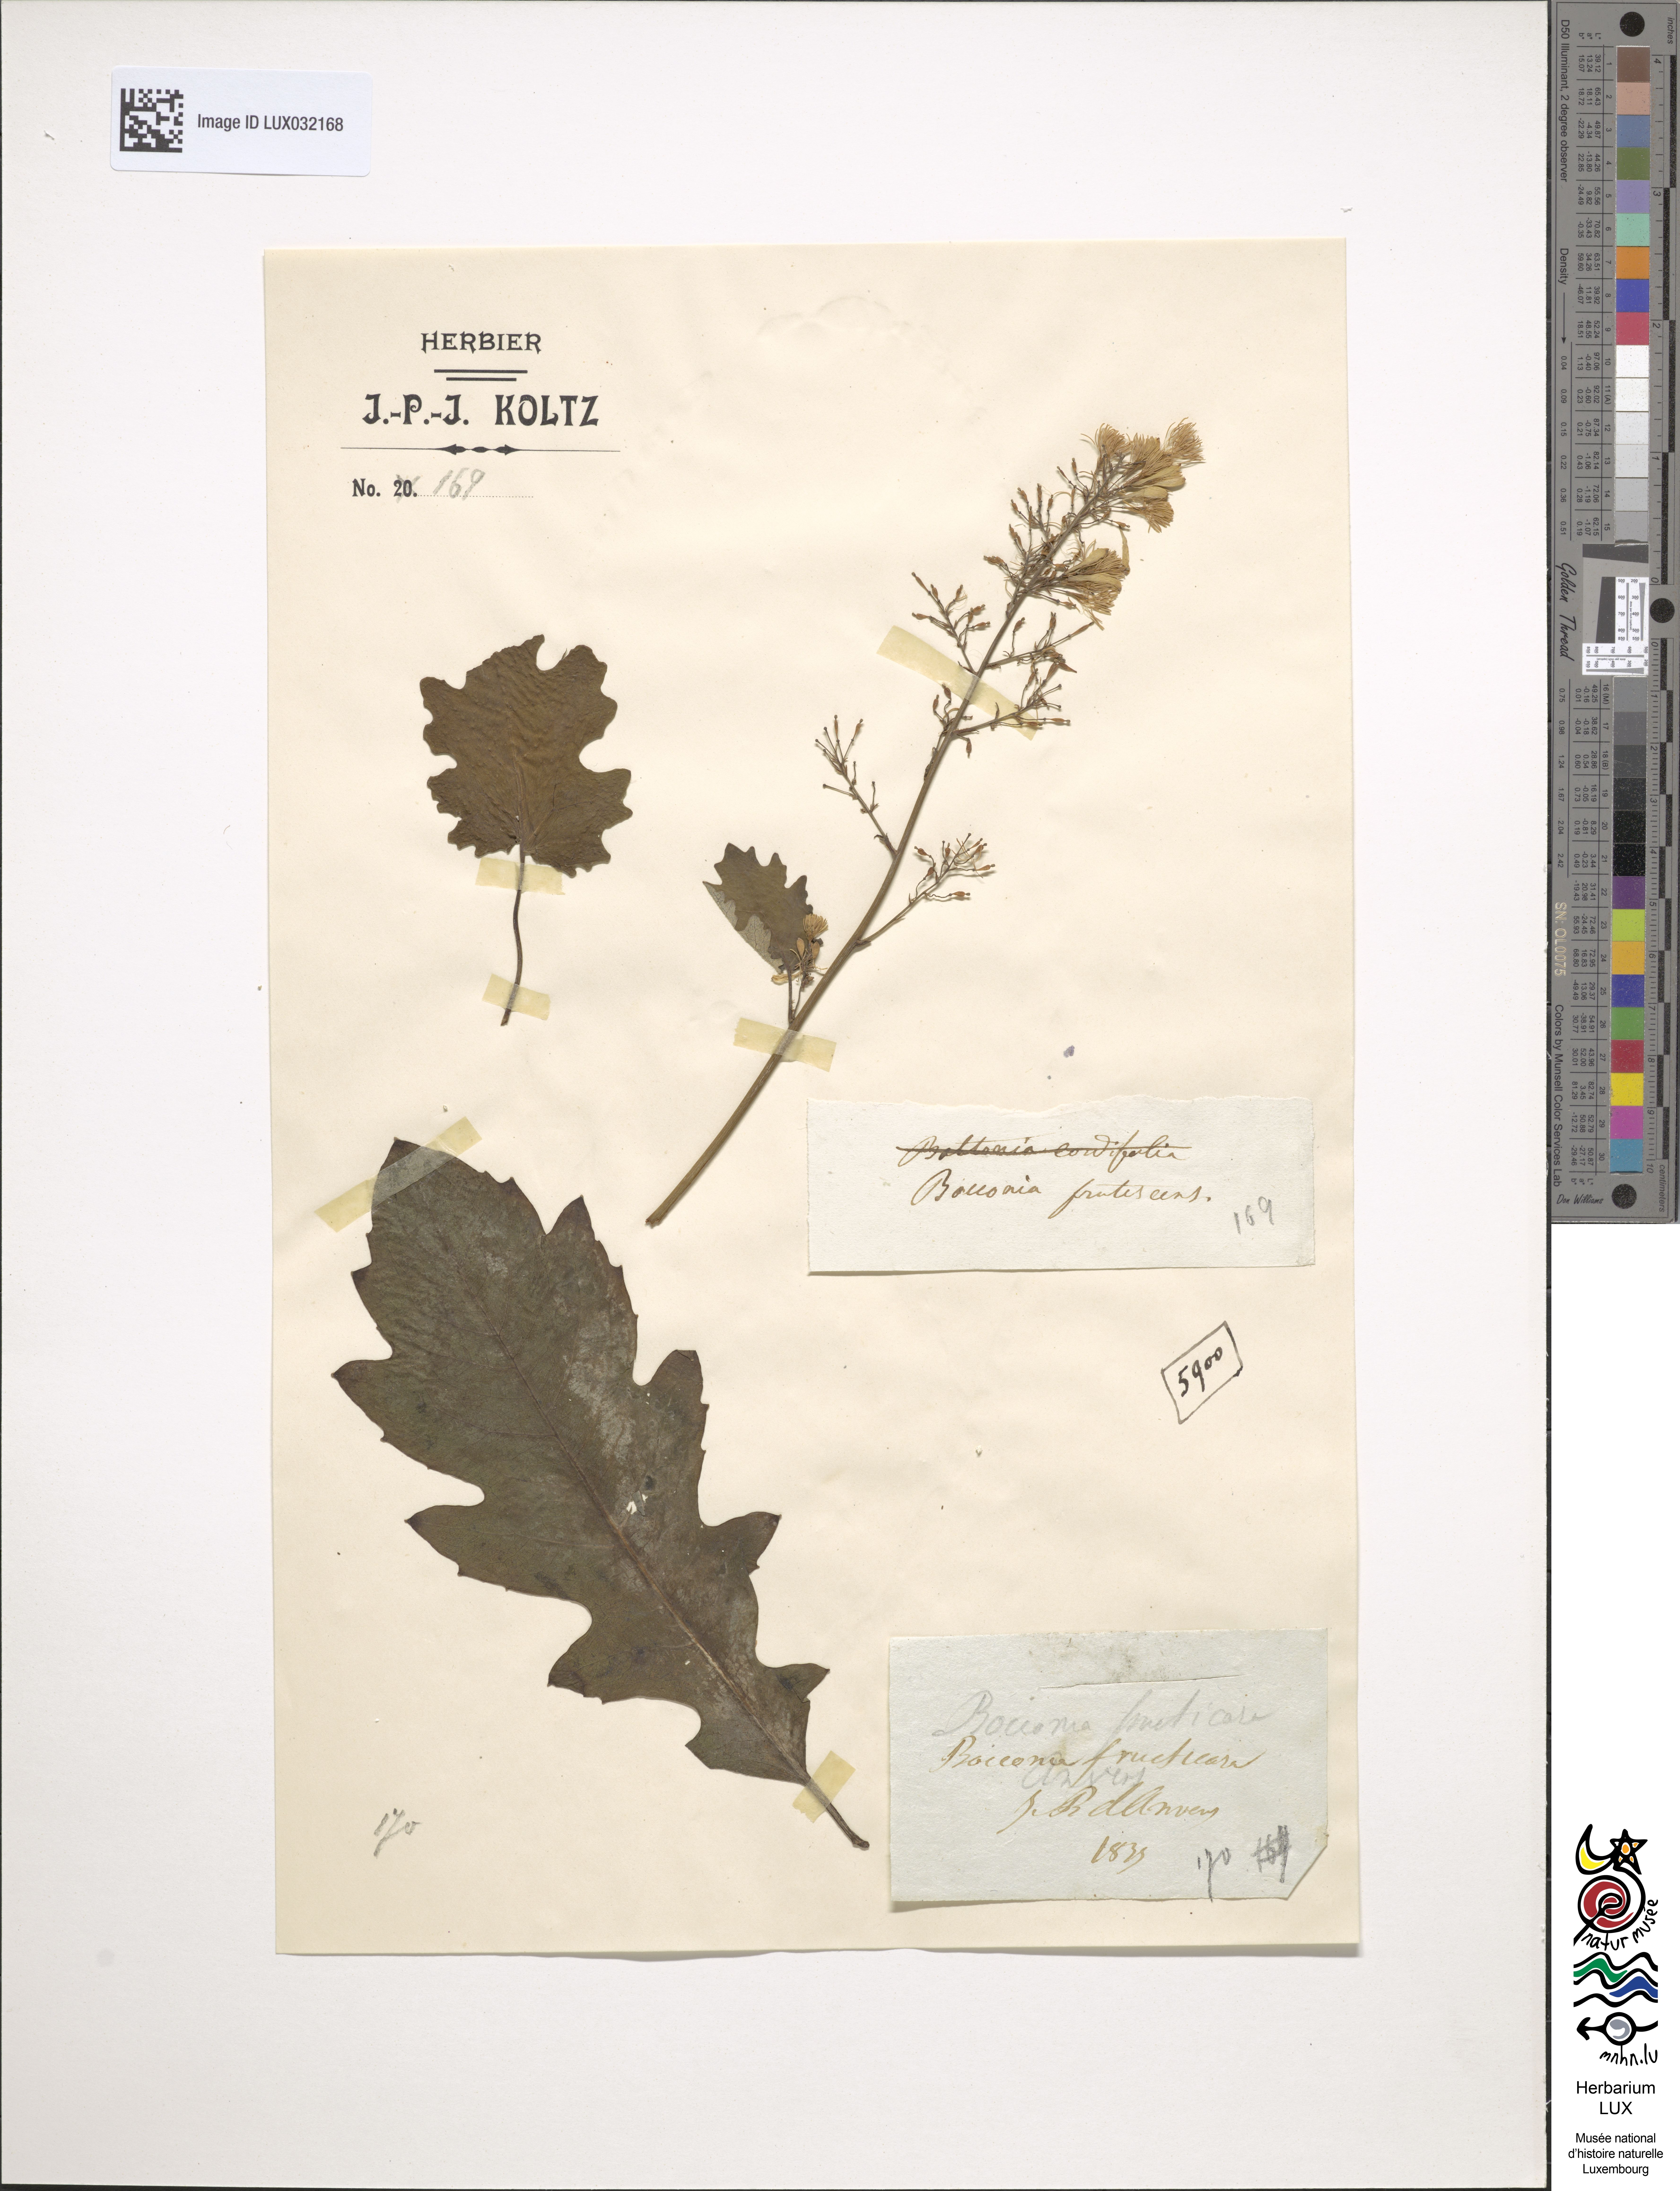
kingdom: Plantae
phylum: Tracheophyta
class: Magnoliopsida
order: Ranunculales
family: Papaveraceae
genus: Bocconia
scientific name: Bocconia frutescens
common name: Tree poppy
